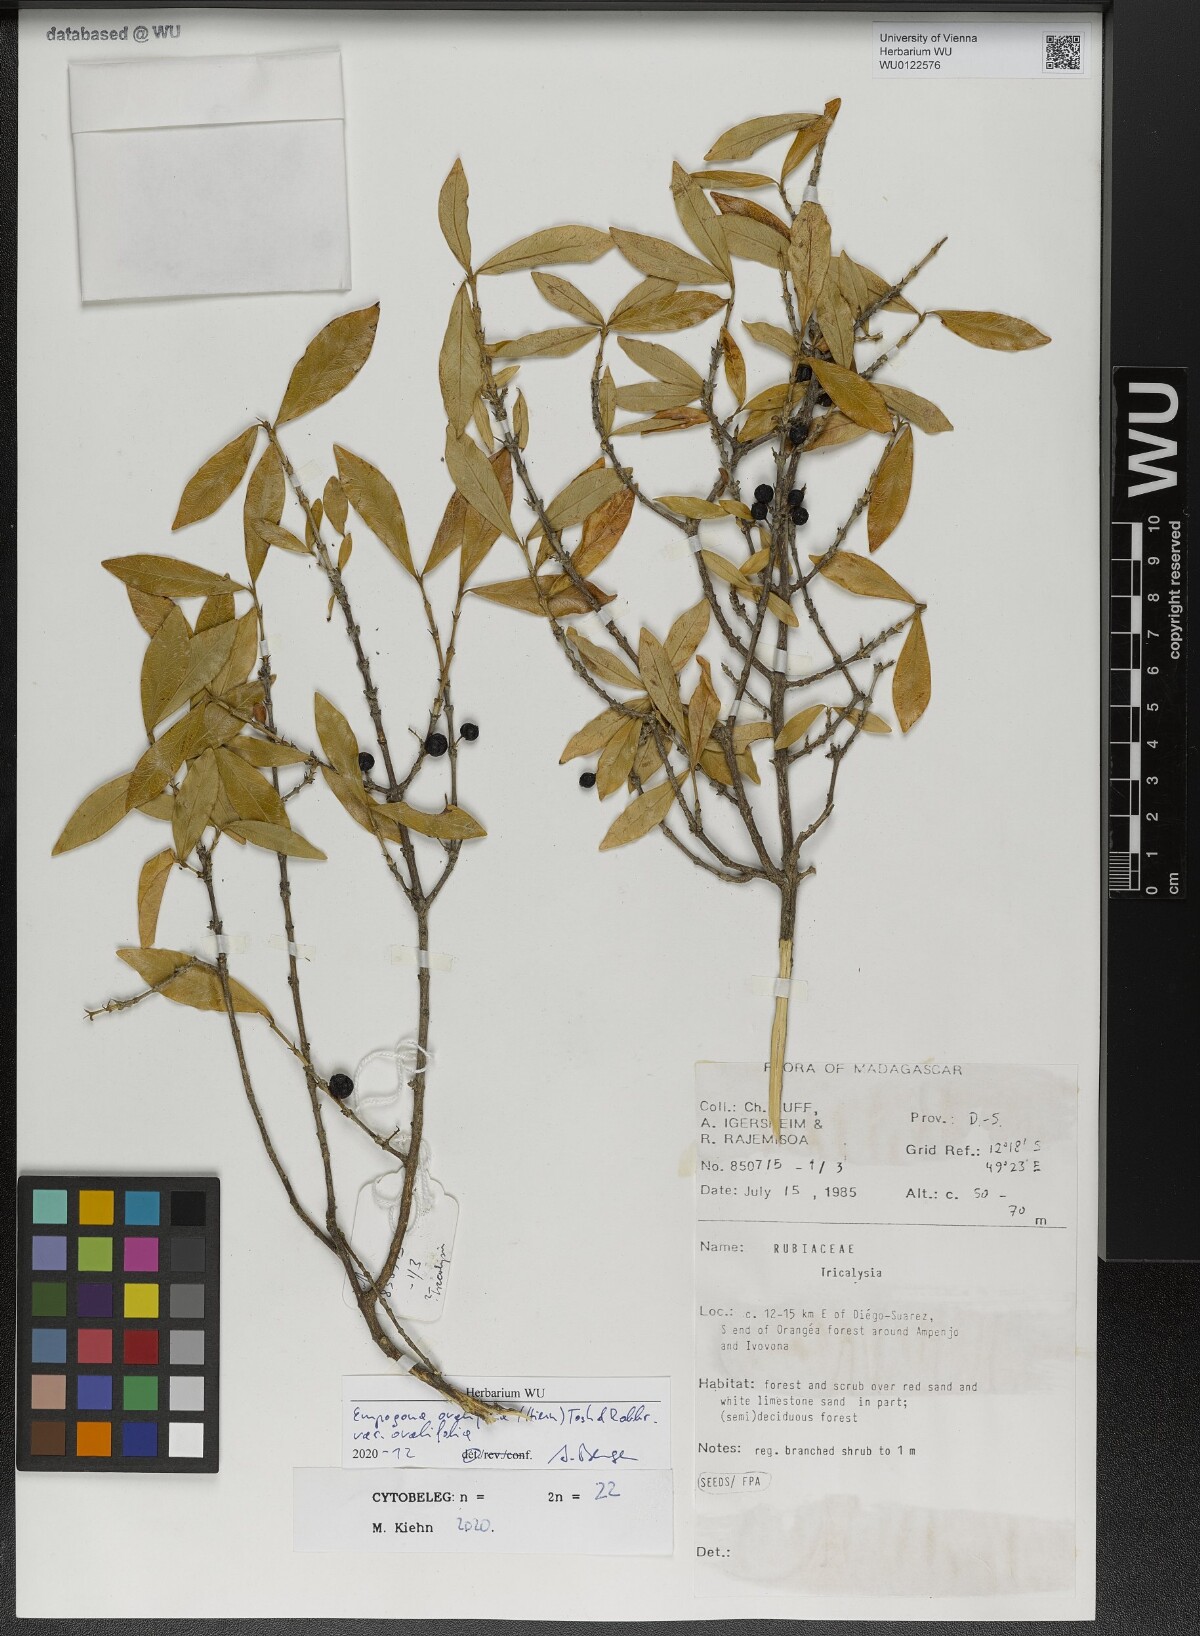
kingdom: Plantae
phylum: Tracheophyta
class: Magnoliopsida
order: Gentianales
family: Rubiaceae
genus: Empogona
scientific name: Empogona ovalifolia
